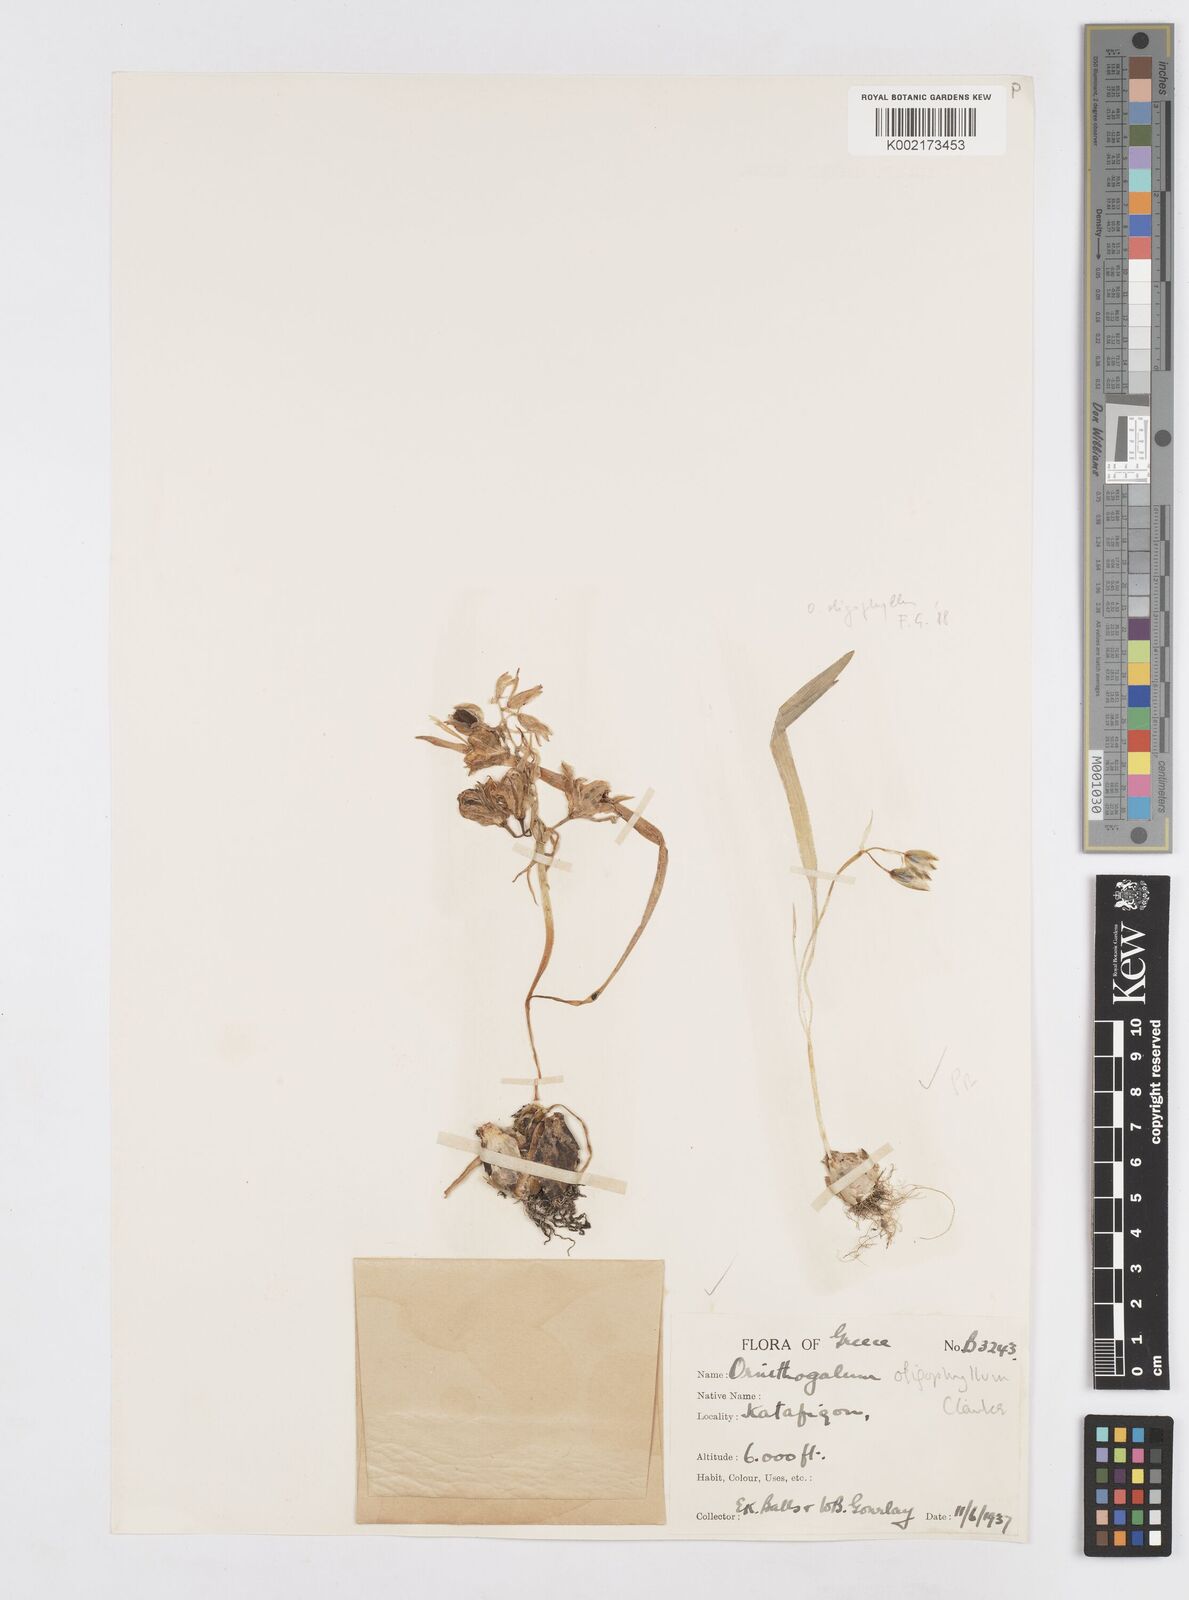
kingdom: Plantae
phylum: Tracheophyta
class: Liliopsida
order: Asparagales
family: Asparagaceae
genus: Ornithogalum
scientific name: Ornithogalum oligophyllum
